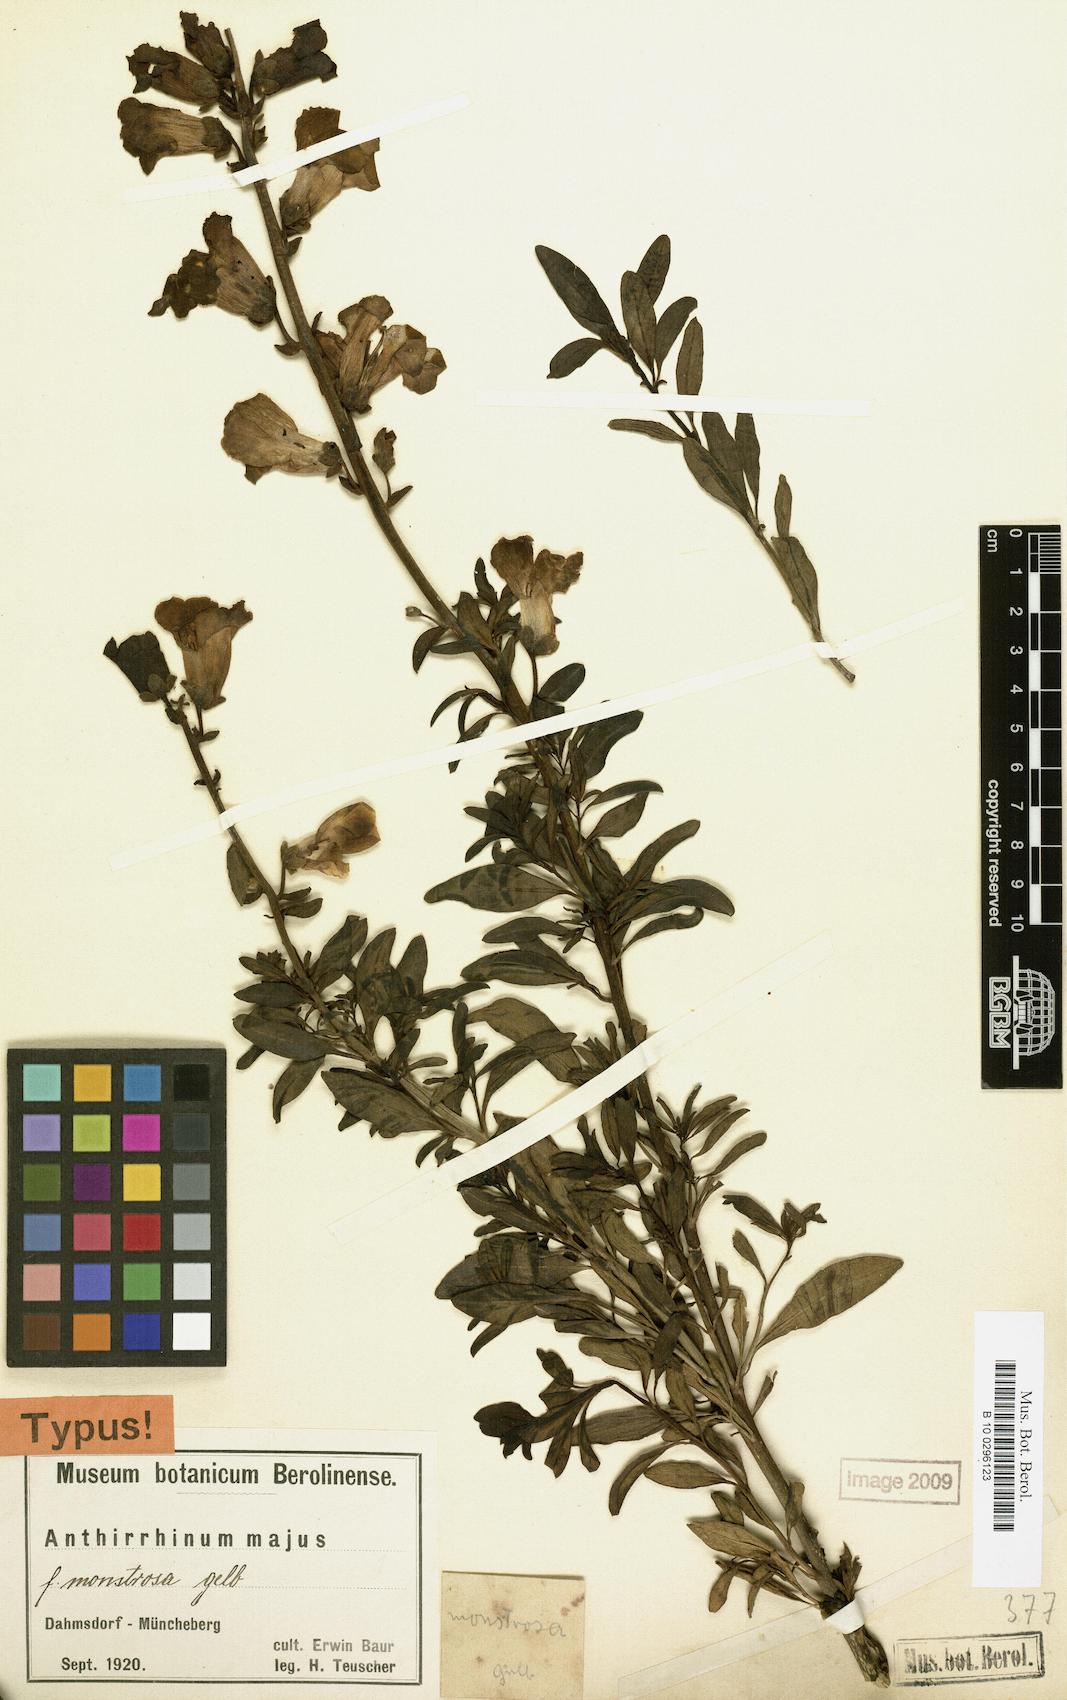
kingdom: Plantae
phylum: Tracheophyta
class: Magnoliopsida
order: Lamiales
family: Plantaginaceae
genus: Antirrhinum
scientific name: Antirrhinum majus
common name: Snapdragon
